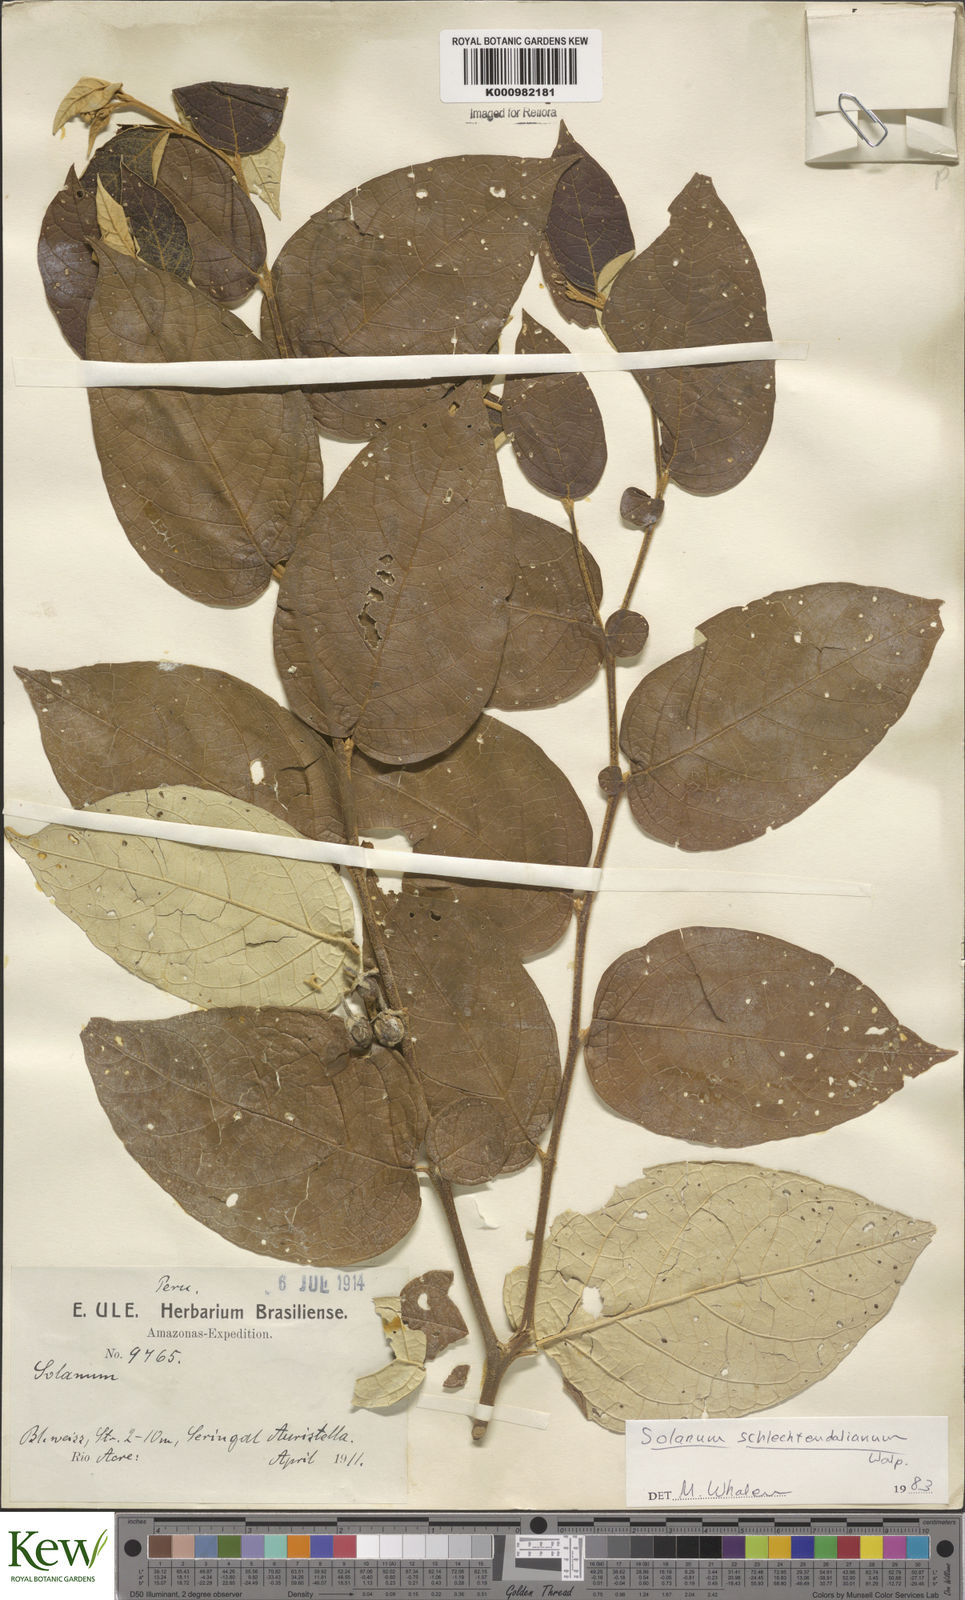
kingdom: Plantae
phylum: Tracheophyta
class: Magnoliopsida
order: Solanales
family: Solanaceae
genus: Solanum
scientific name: Solanum schlechtendalianum
